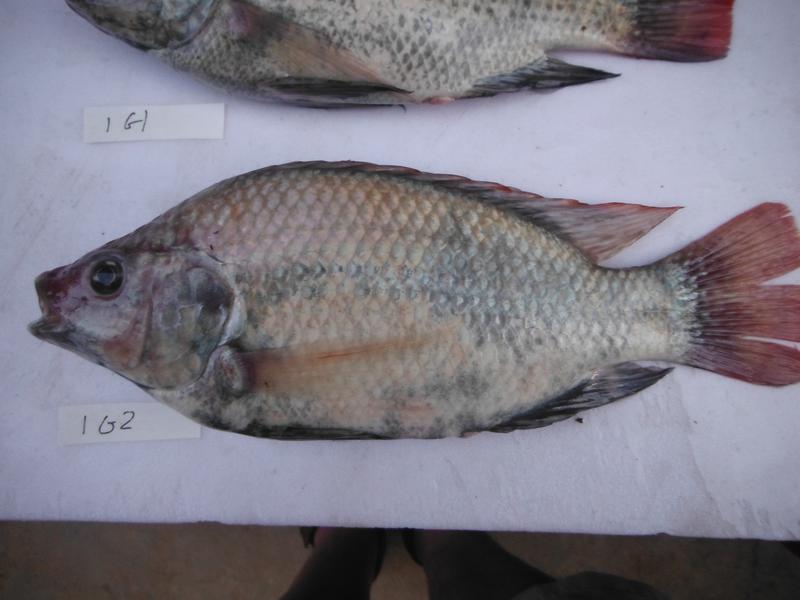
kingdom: Animalia
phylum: Chordata
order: Perciformes
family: Cichlidae
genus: Oreochromis
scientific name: Oreochromis rukwaensis
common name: Lake rukwa tilapia
